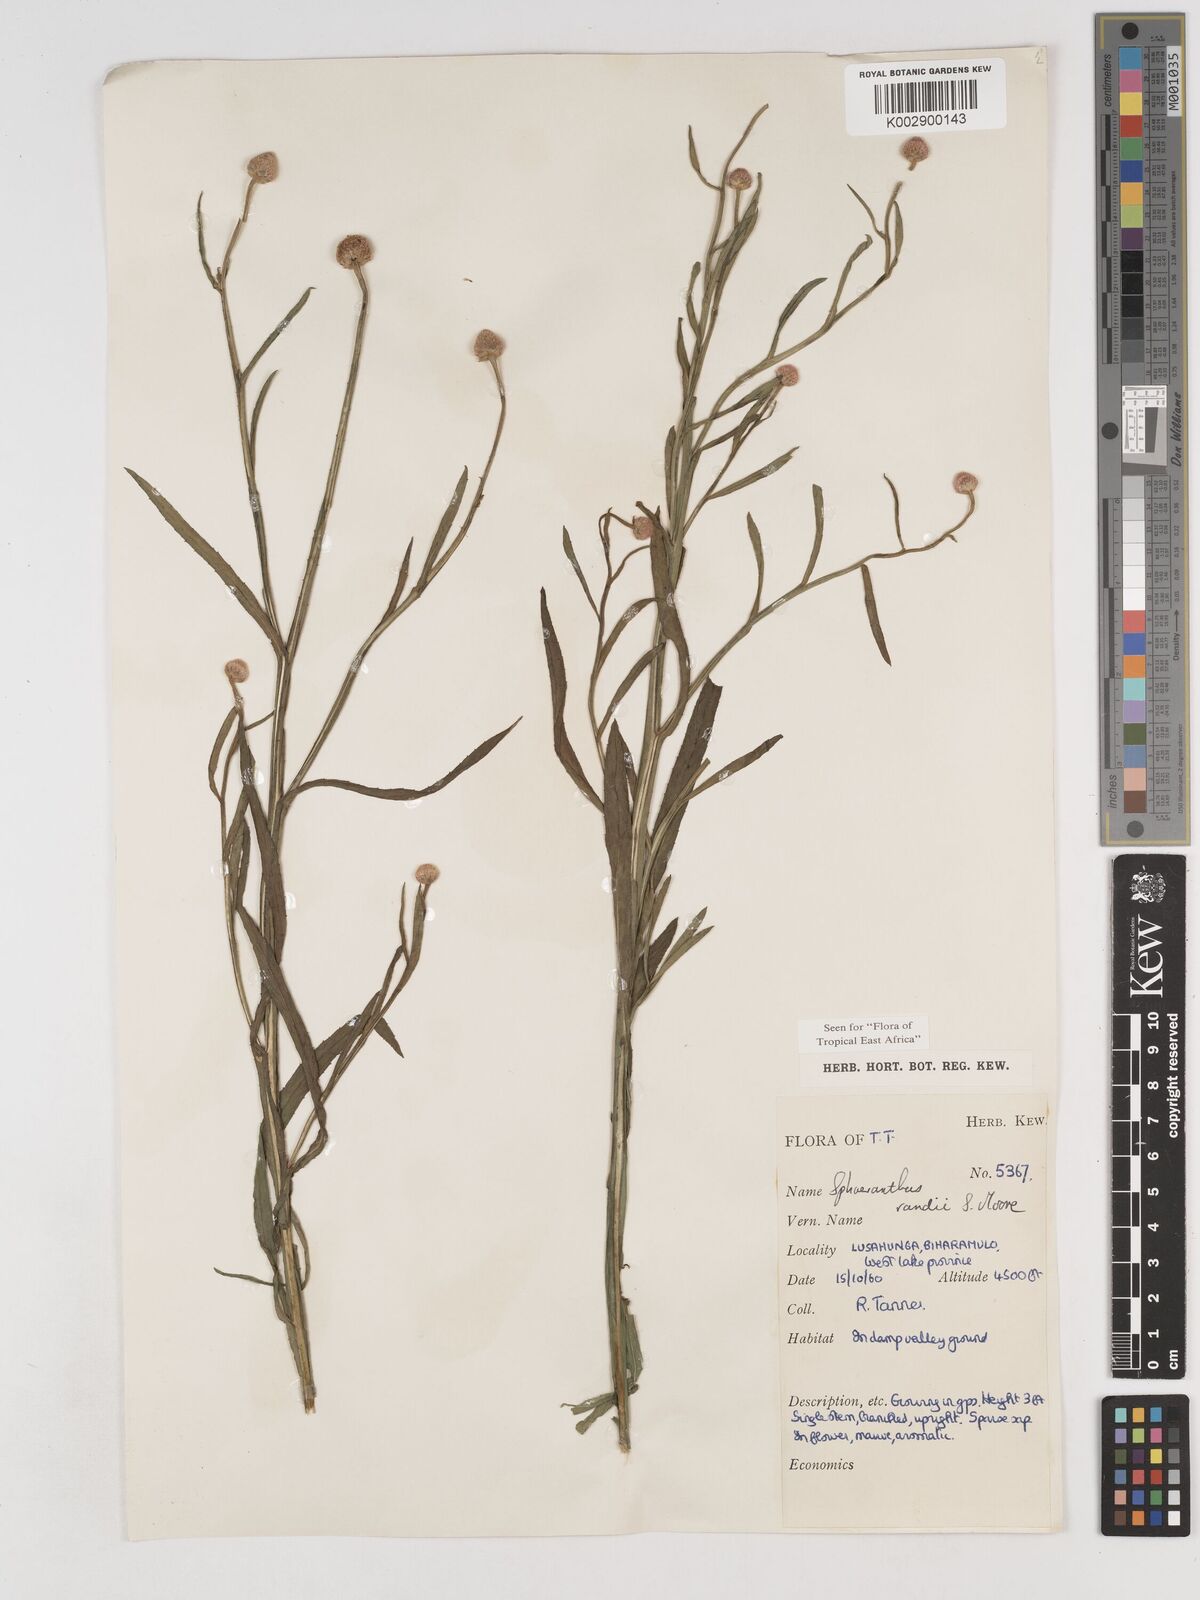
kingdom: Plantae
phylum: Tracheophyta
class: Magnoliopsida
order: Asterales
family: Asteraceae
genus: Sphaeranthus
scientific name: Sphaeranthus randii
